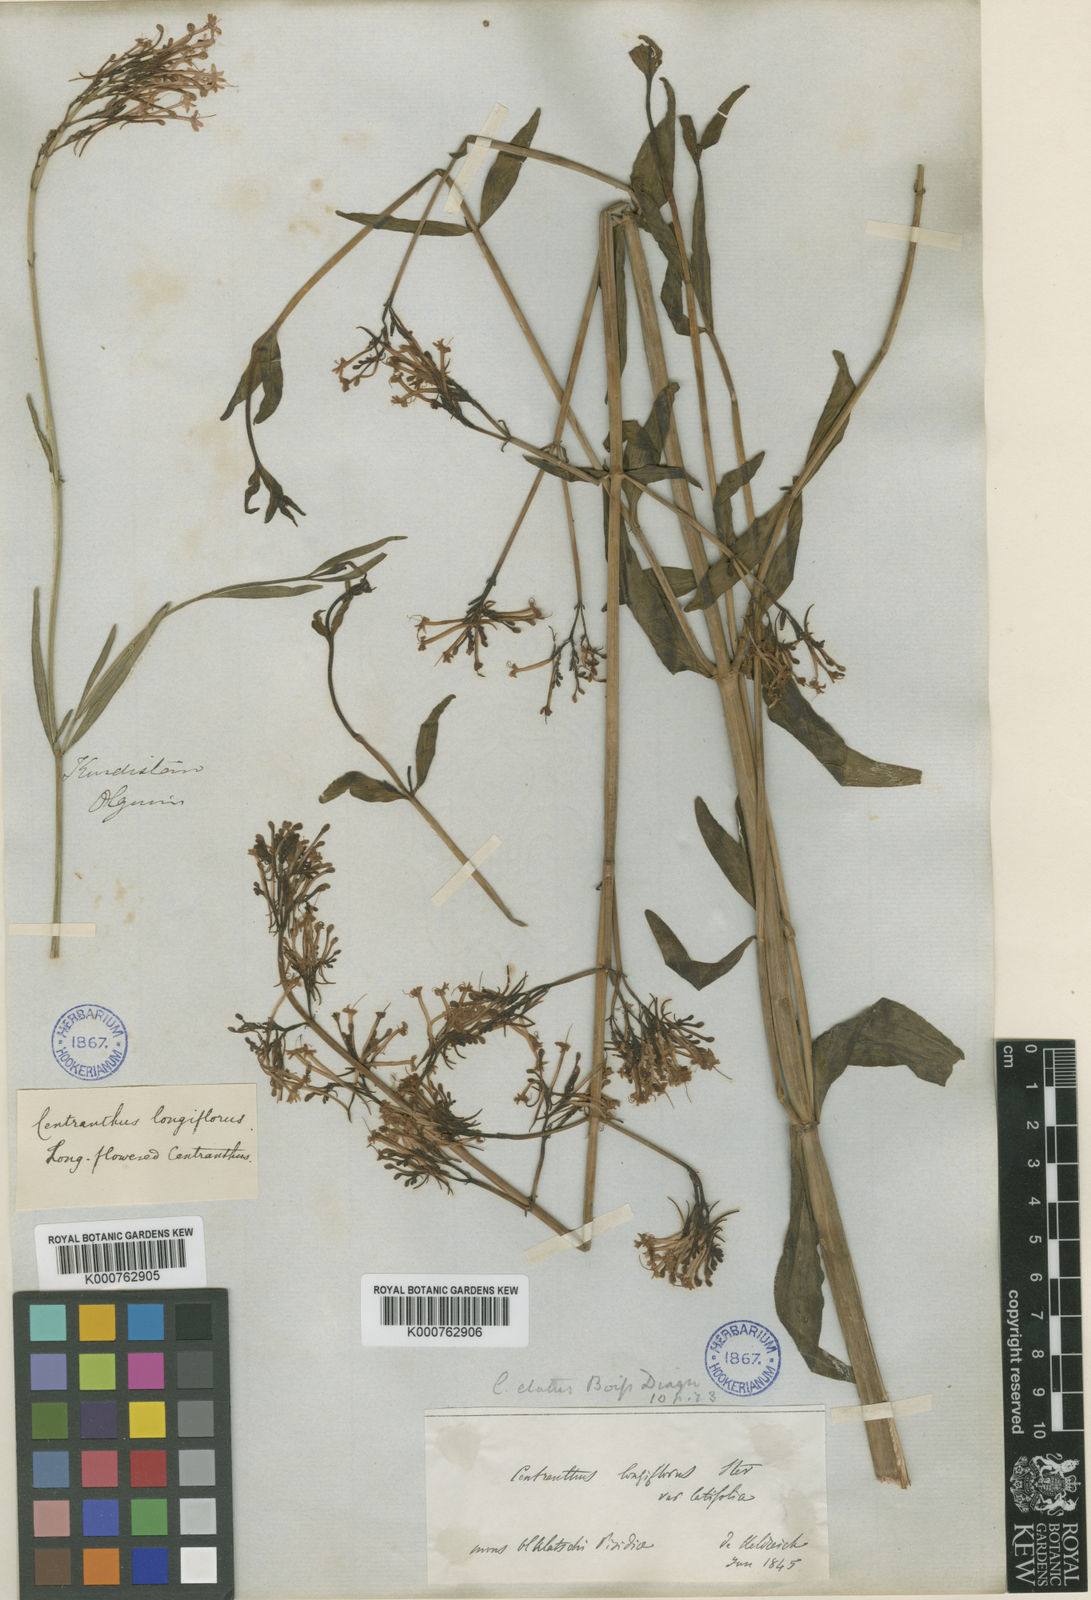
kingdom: Plantae
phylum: Tracheophyta
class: Magnoliopsida
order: Dipsacales
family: Caprifoliaceae
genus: Centranthus
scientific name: Centranthus longiflorus
